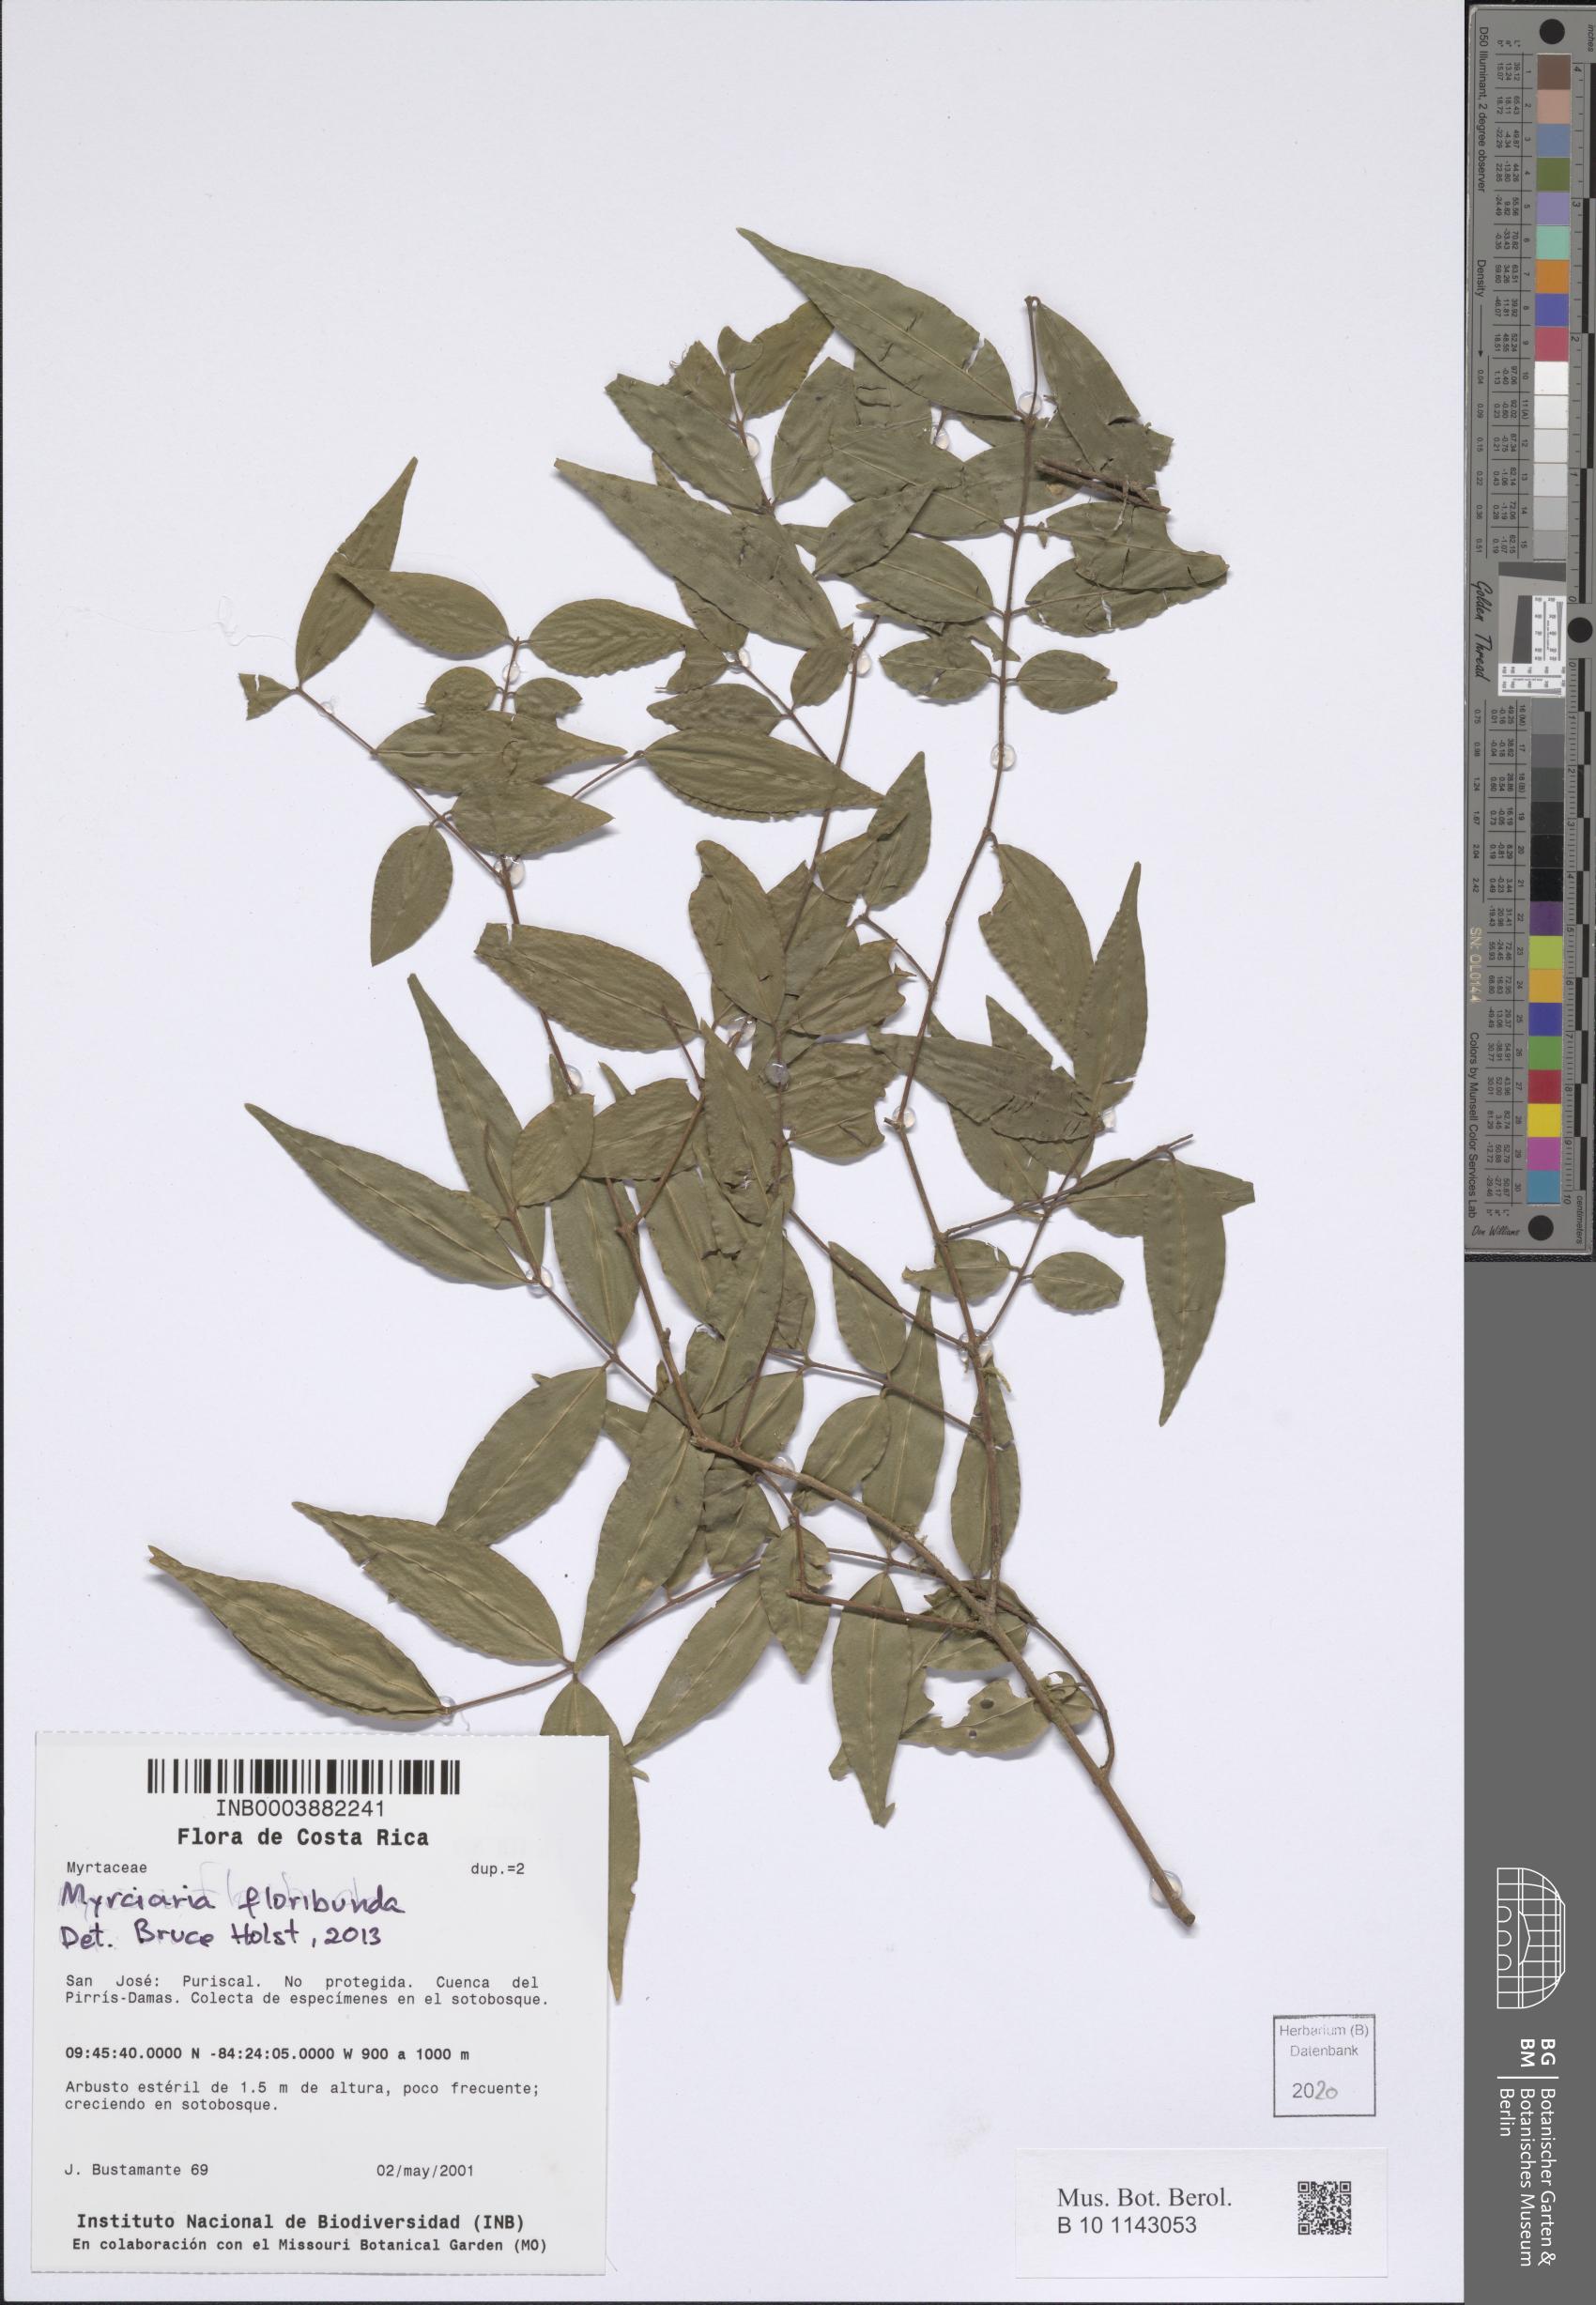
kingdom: Plantae
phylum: Tracheophyta
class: Magnoliopsida
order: Myrtales
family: Myrtaceae
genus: Myrciaria
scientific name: Myrciaria floribunda
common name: Guavaberry
